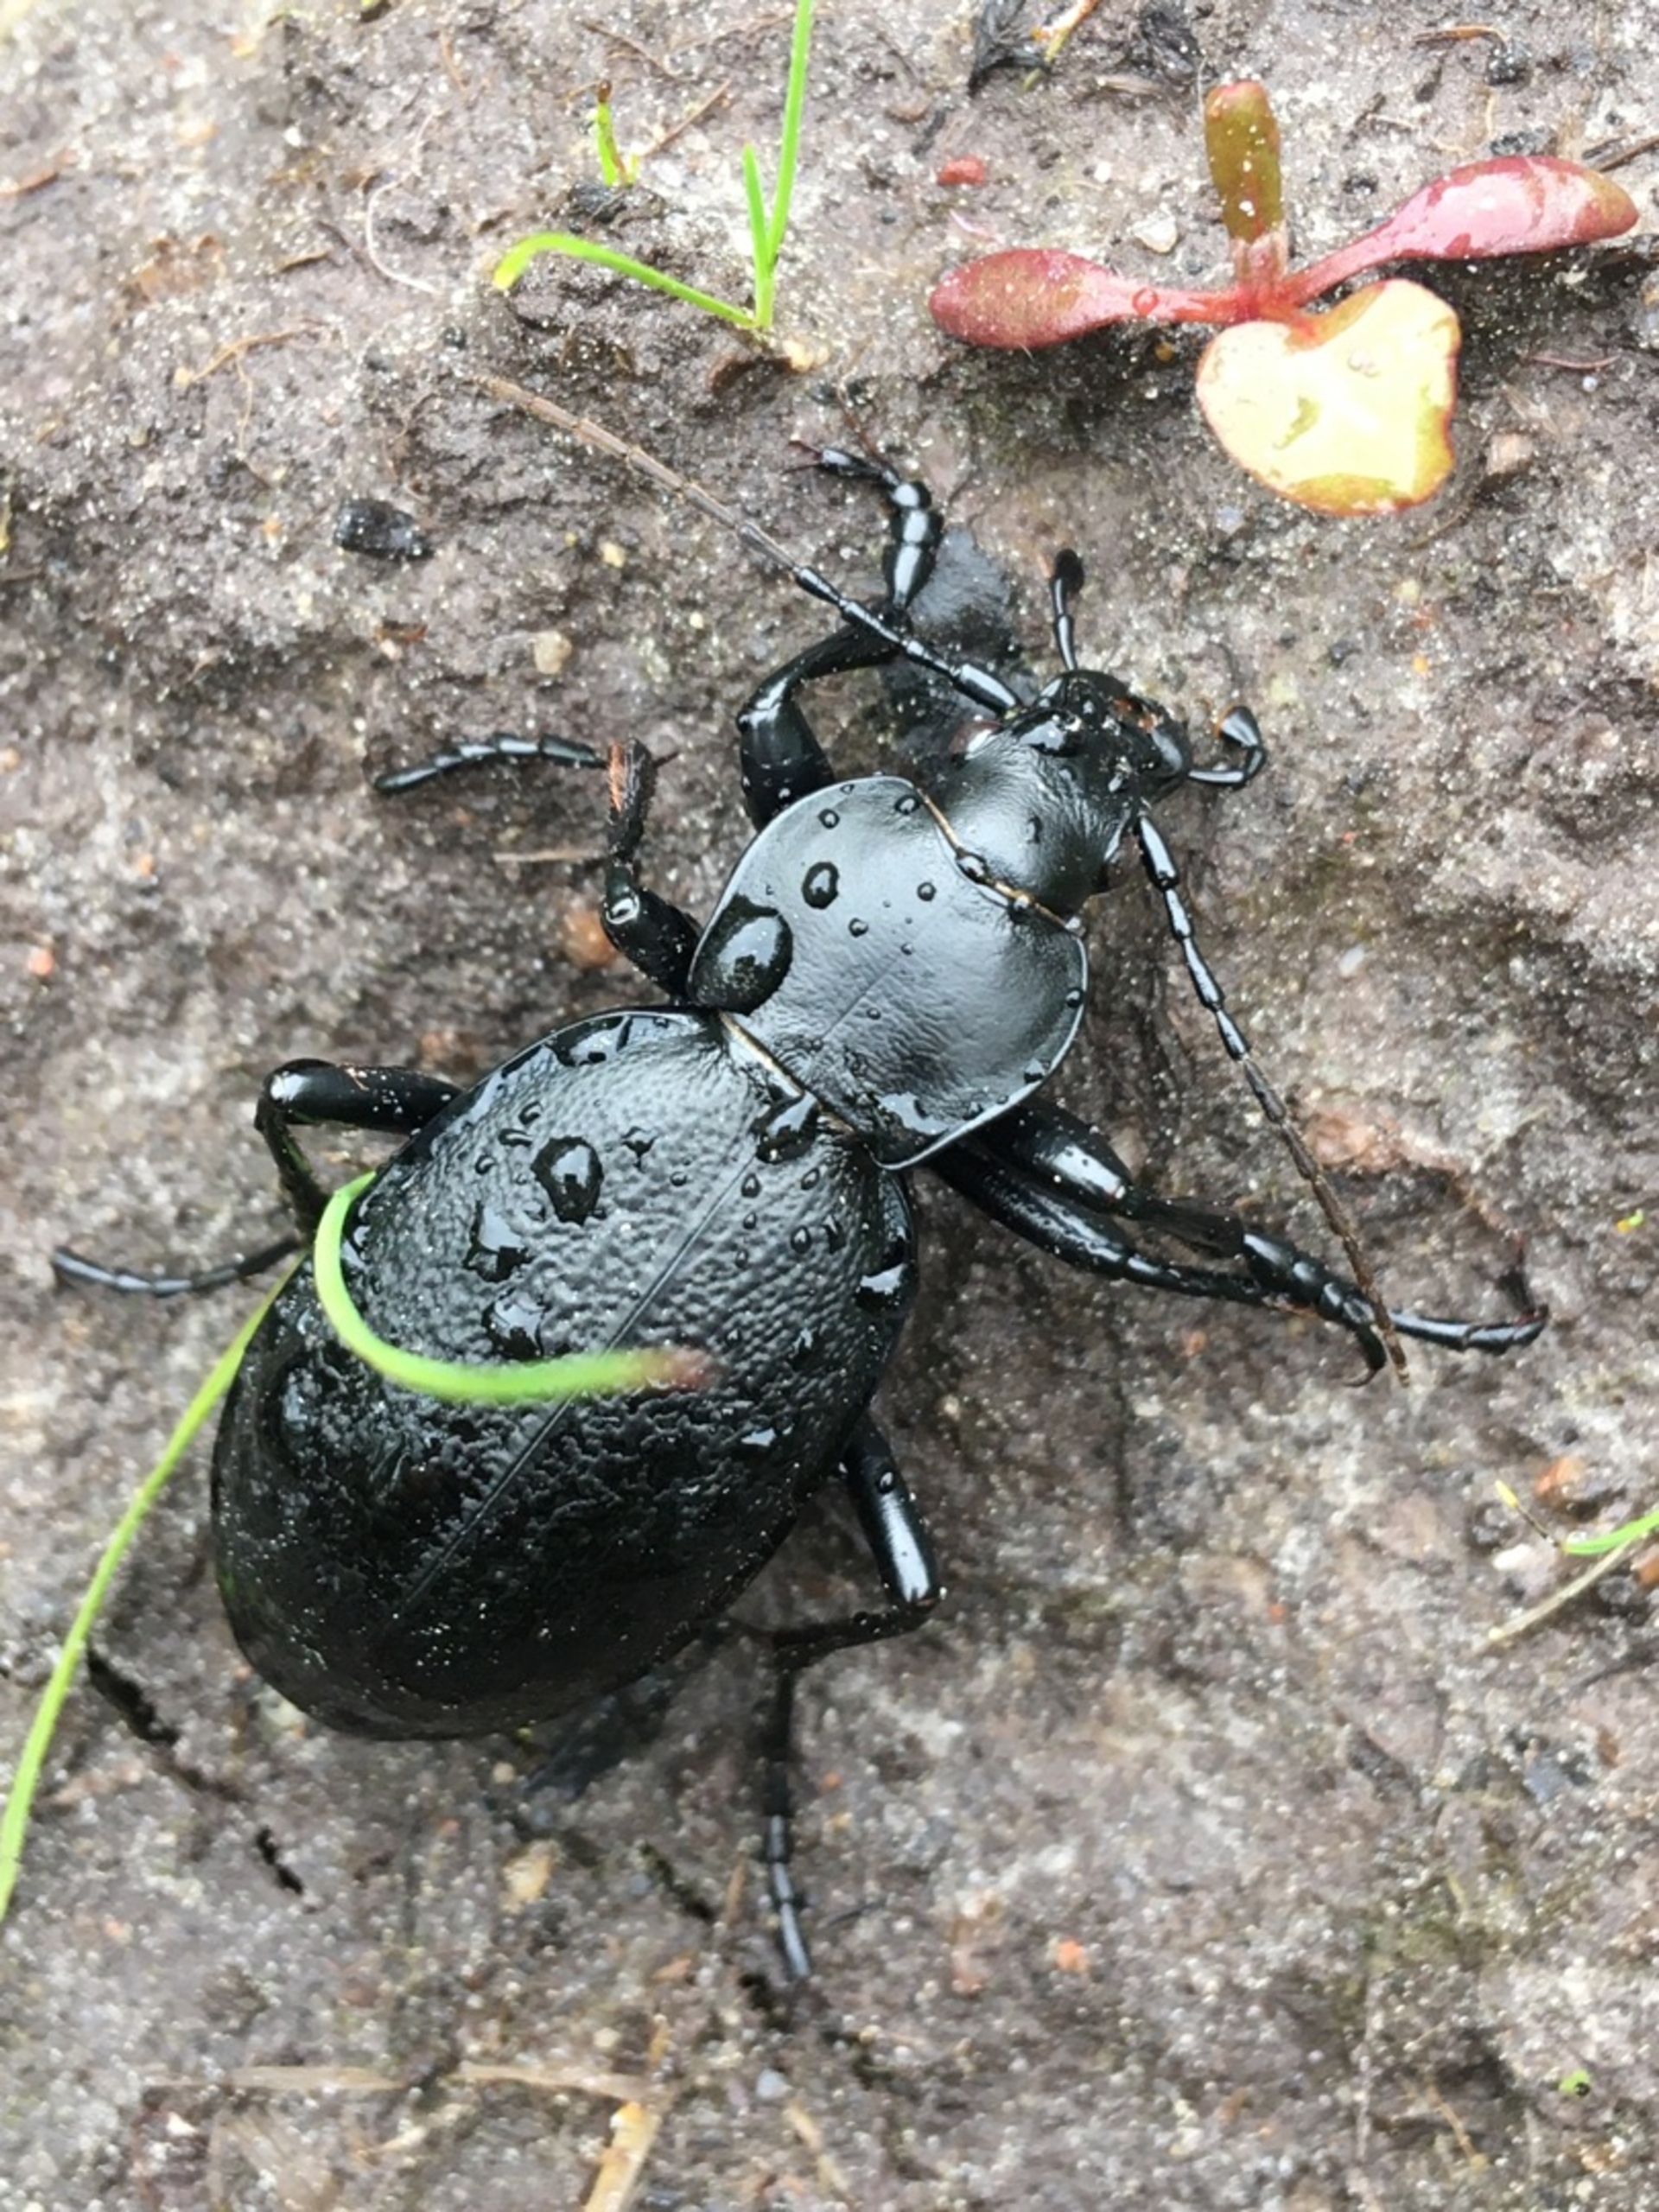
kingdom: Animalia
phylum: Arthropoda
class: Insecta
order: Coleoptera
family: Carabidae
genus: Carabus
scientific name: Carabus coriaceus
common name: Læderløber
